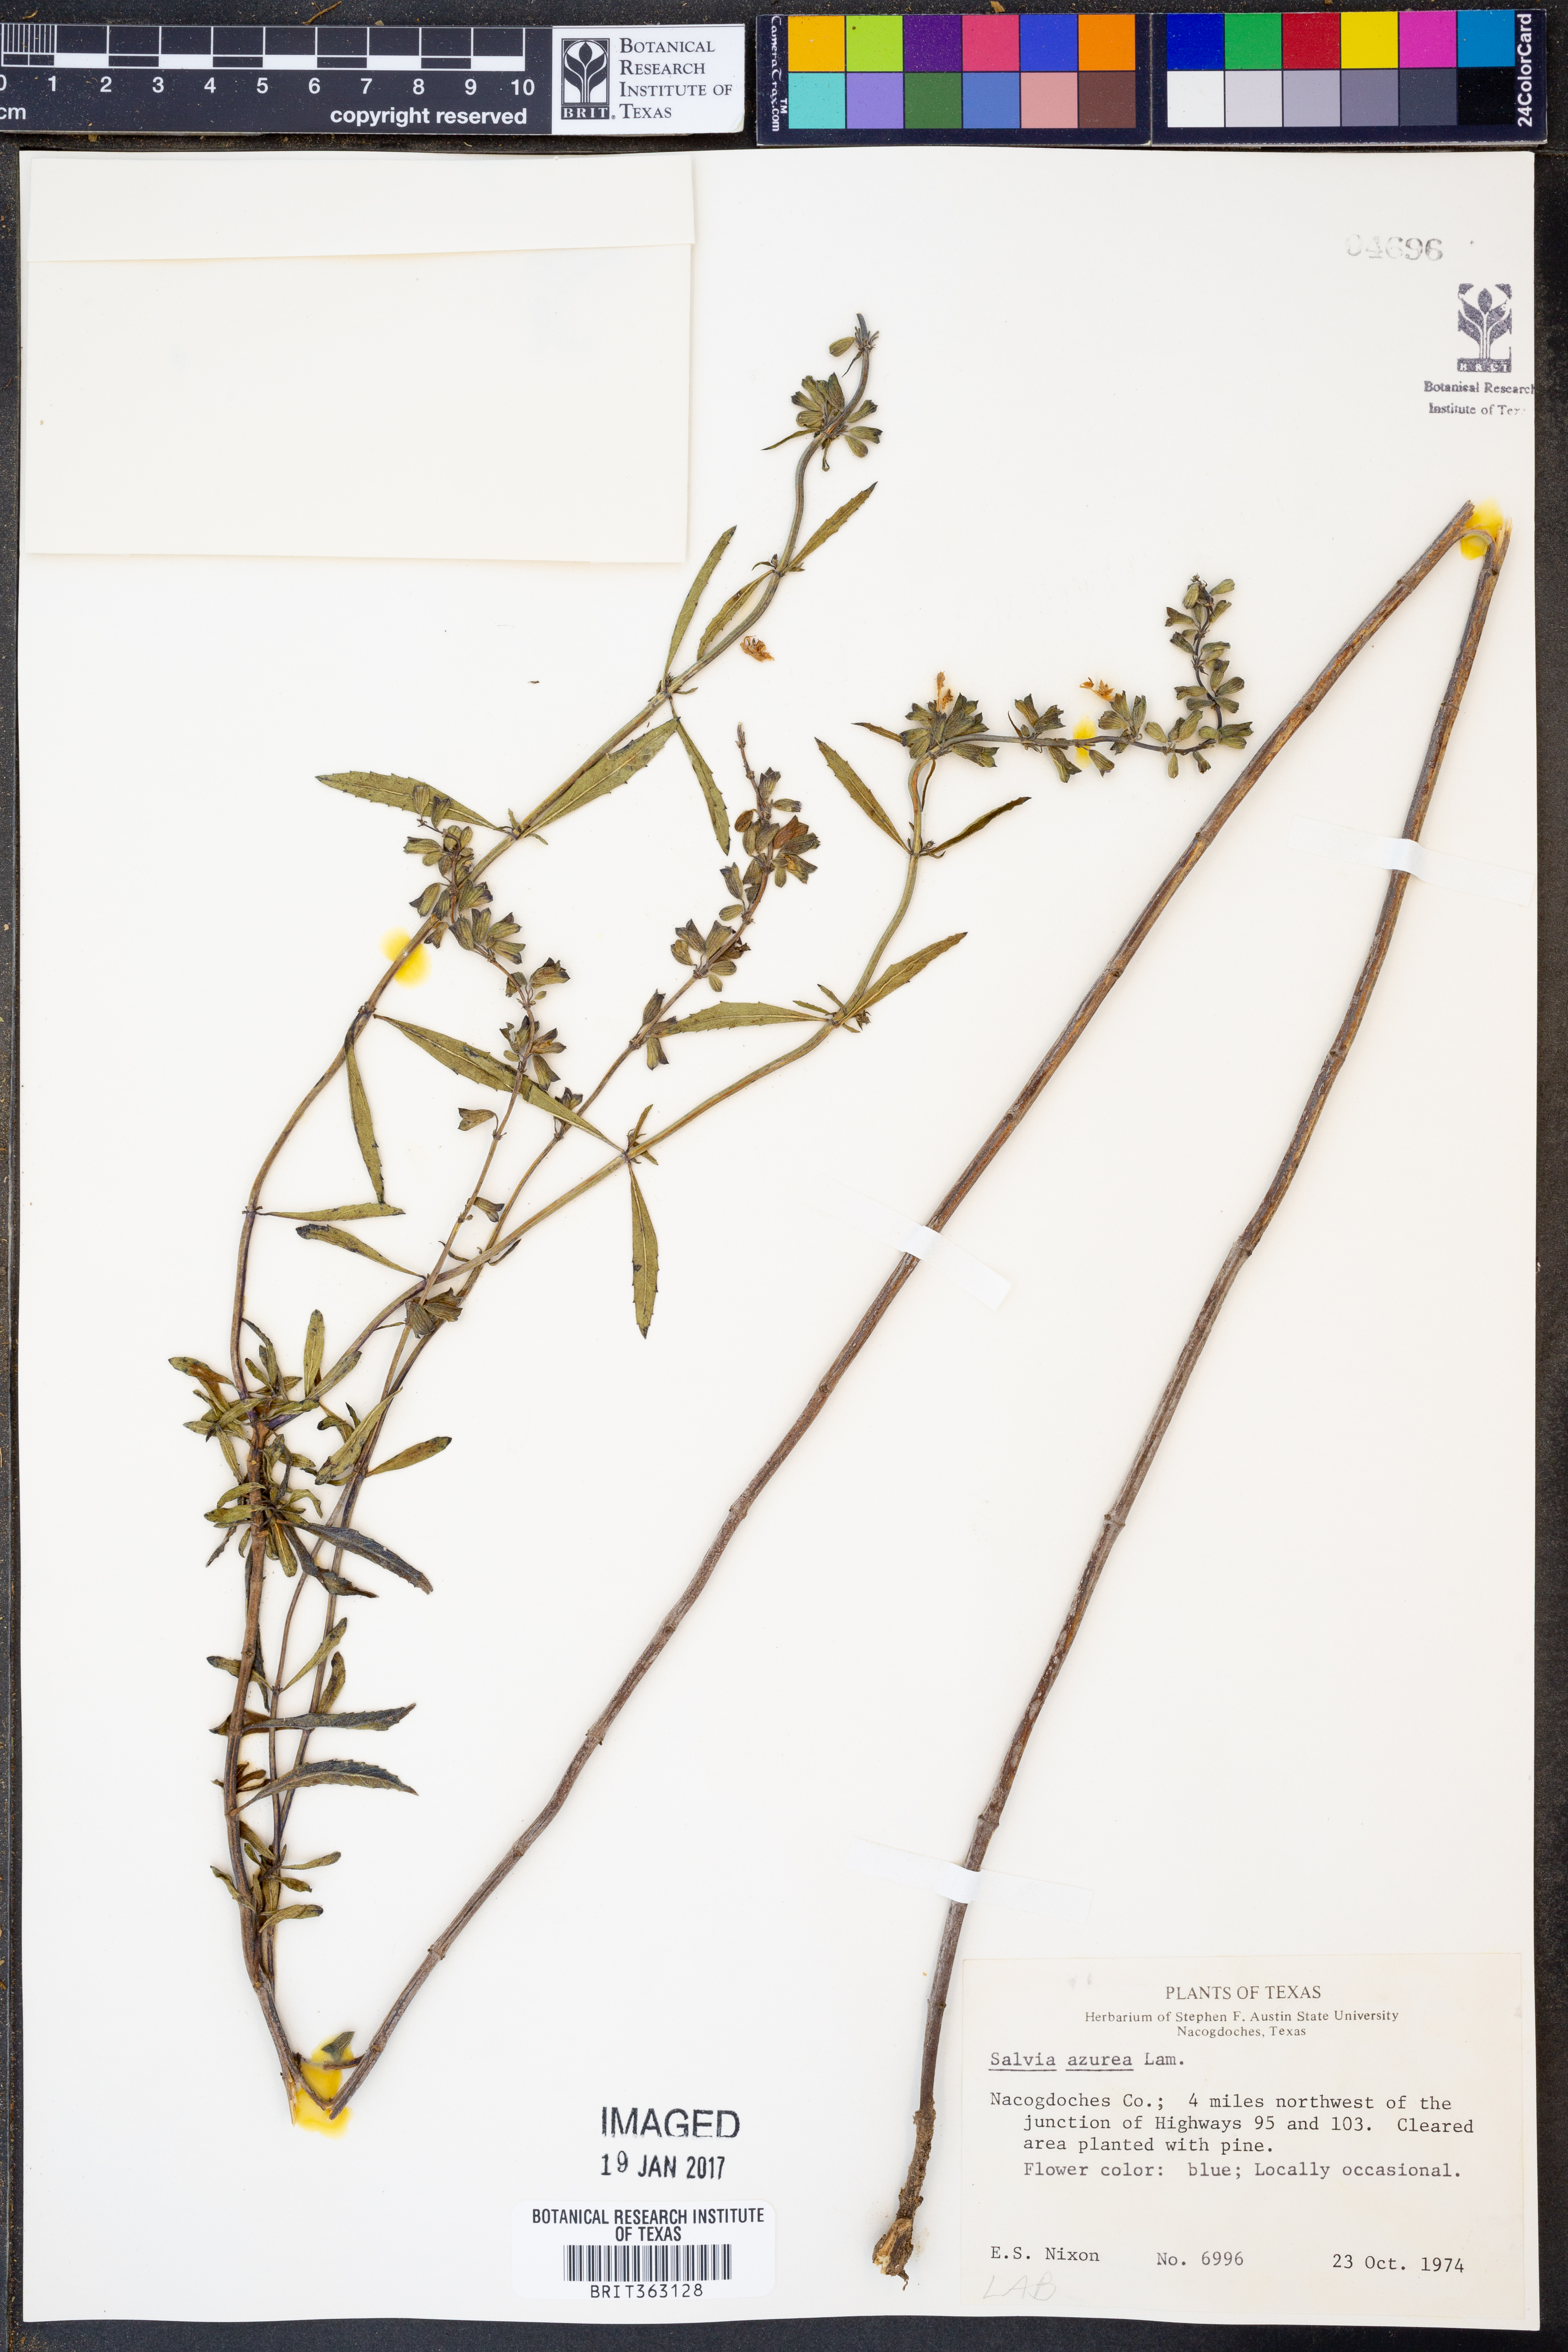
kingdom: Plantae
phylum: Tracheophyta
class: Magnoliopsida
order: Lamiales
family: Lamiaceae
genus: Salvia
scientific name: Salvia azurea
